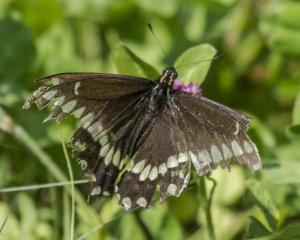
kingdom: Animalia
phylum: Arthropoda
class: Insecta
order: Lepidoptera
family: Papilionidae
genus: Papilio
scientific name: Papilio brevicauda
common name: Short-tailed Swallowtail
